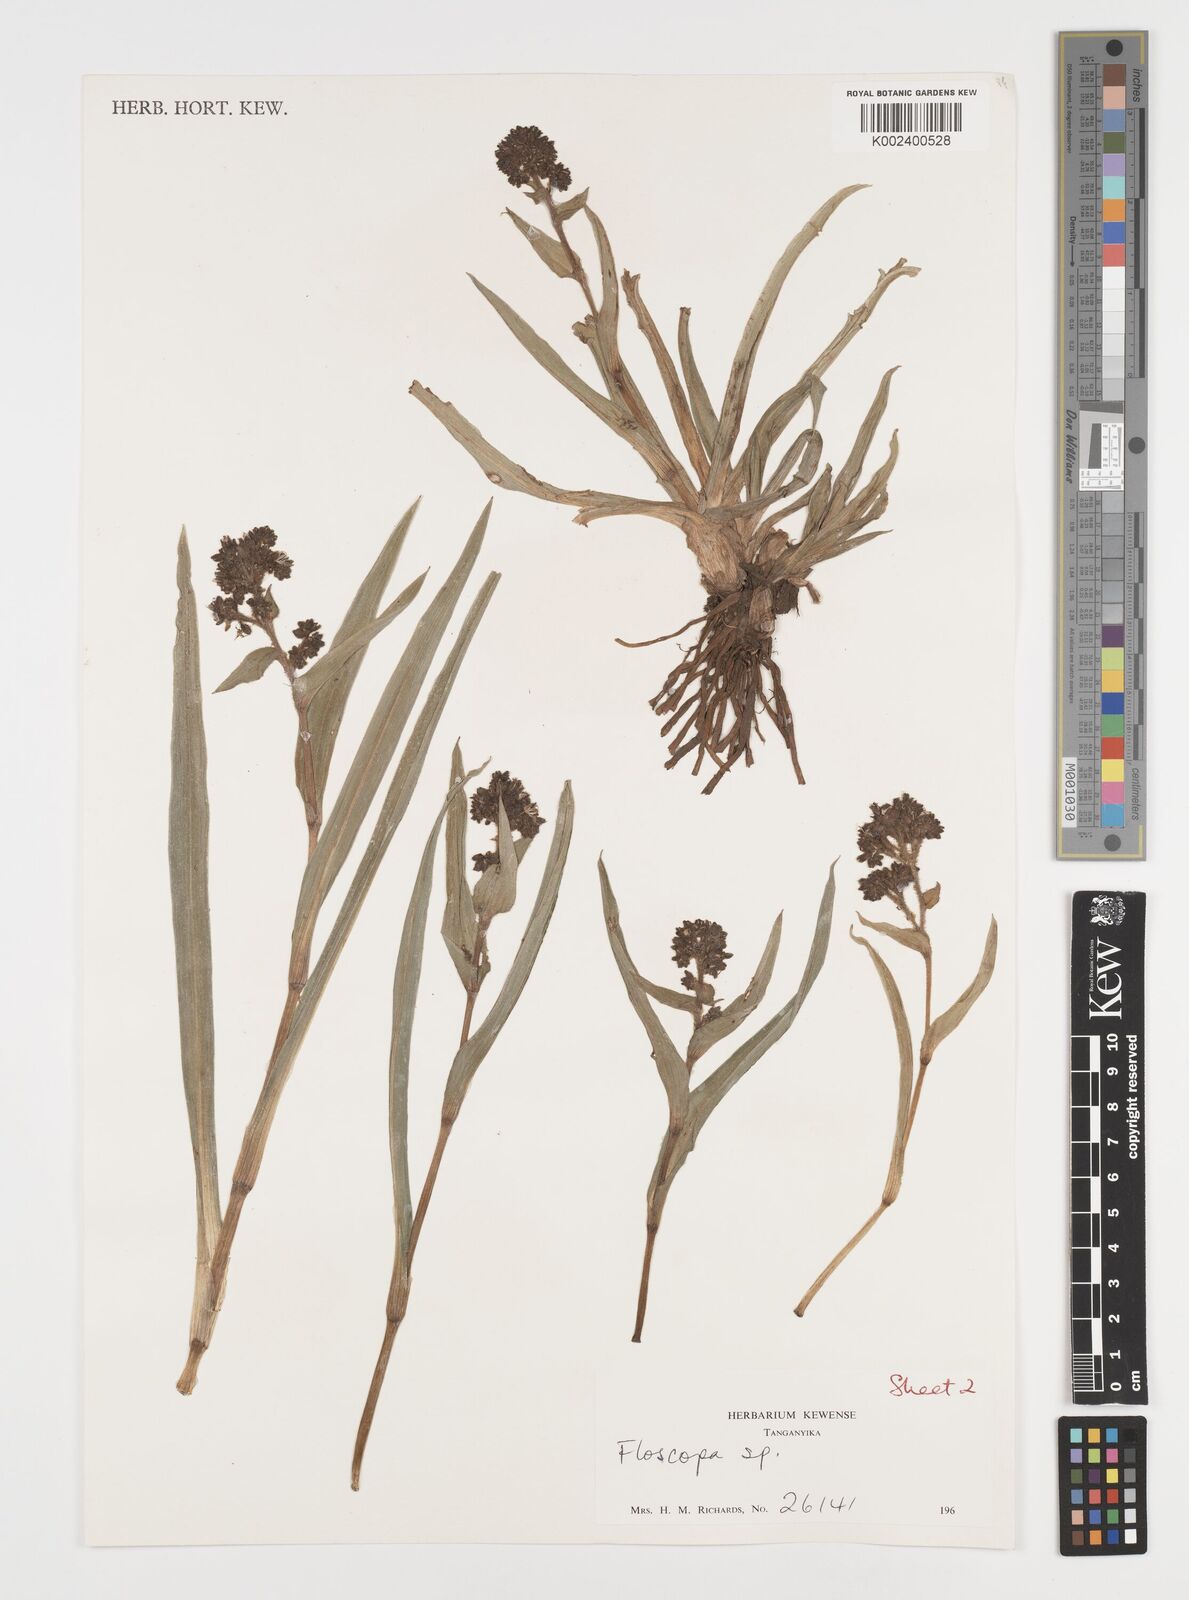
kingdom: Plantae
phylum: Tracheophyta
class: Liliopsida
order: Commelinales
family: Commelinaceae
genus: Floscopa
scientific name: Floscopa tanneri
